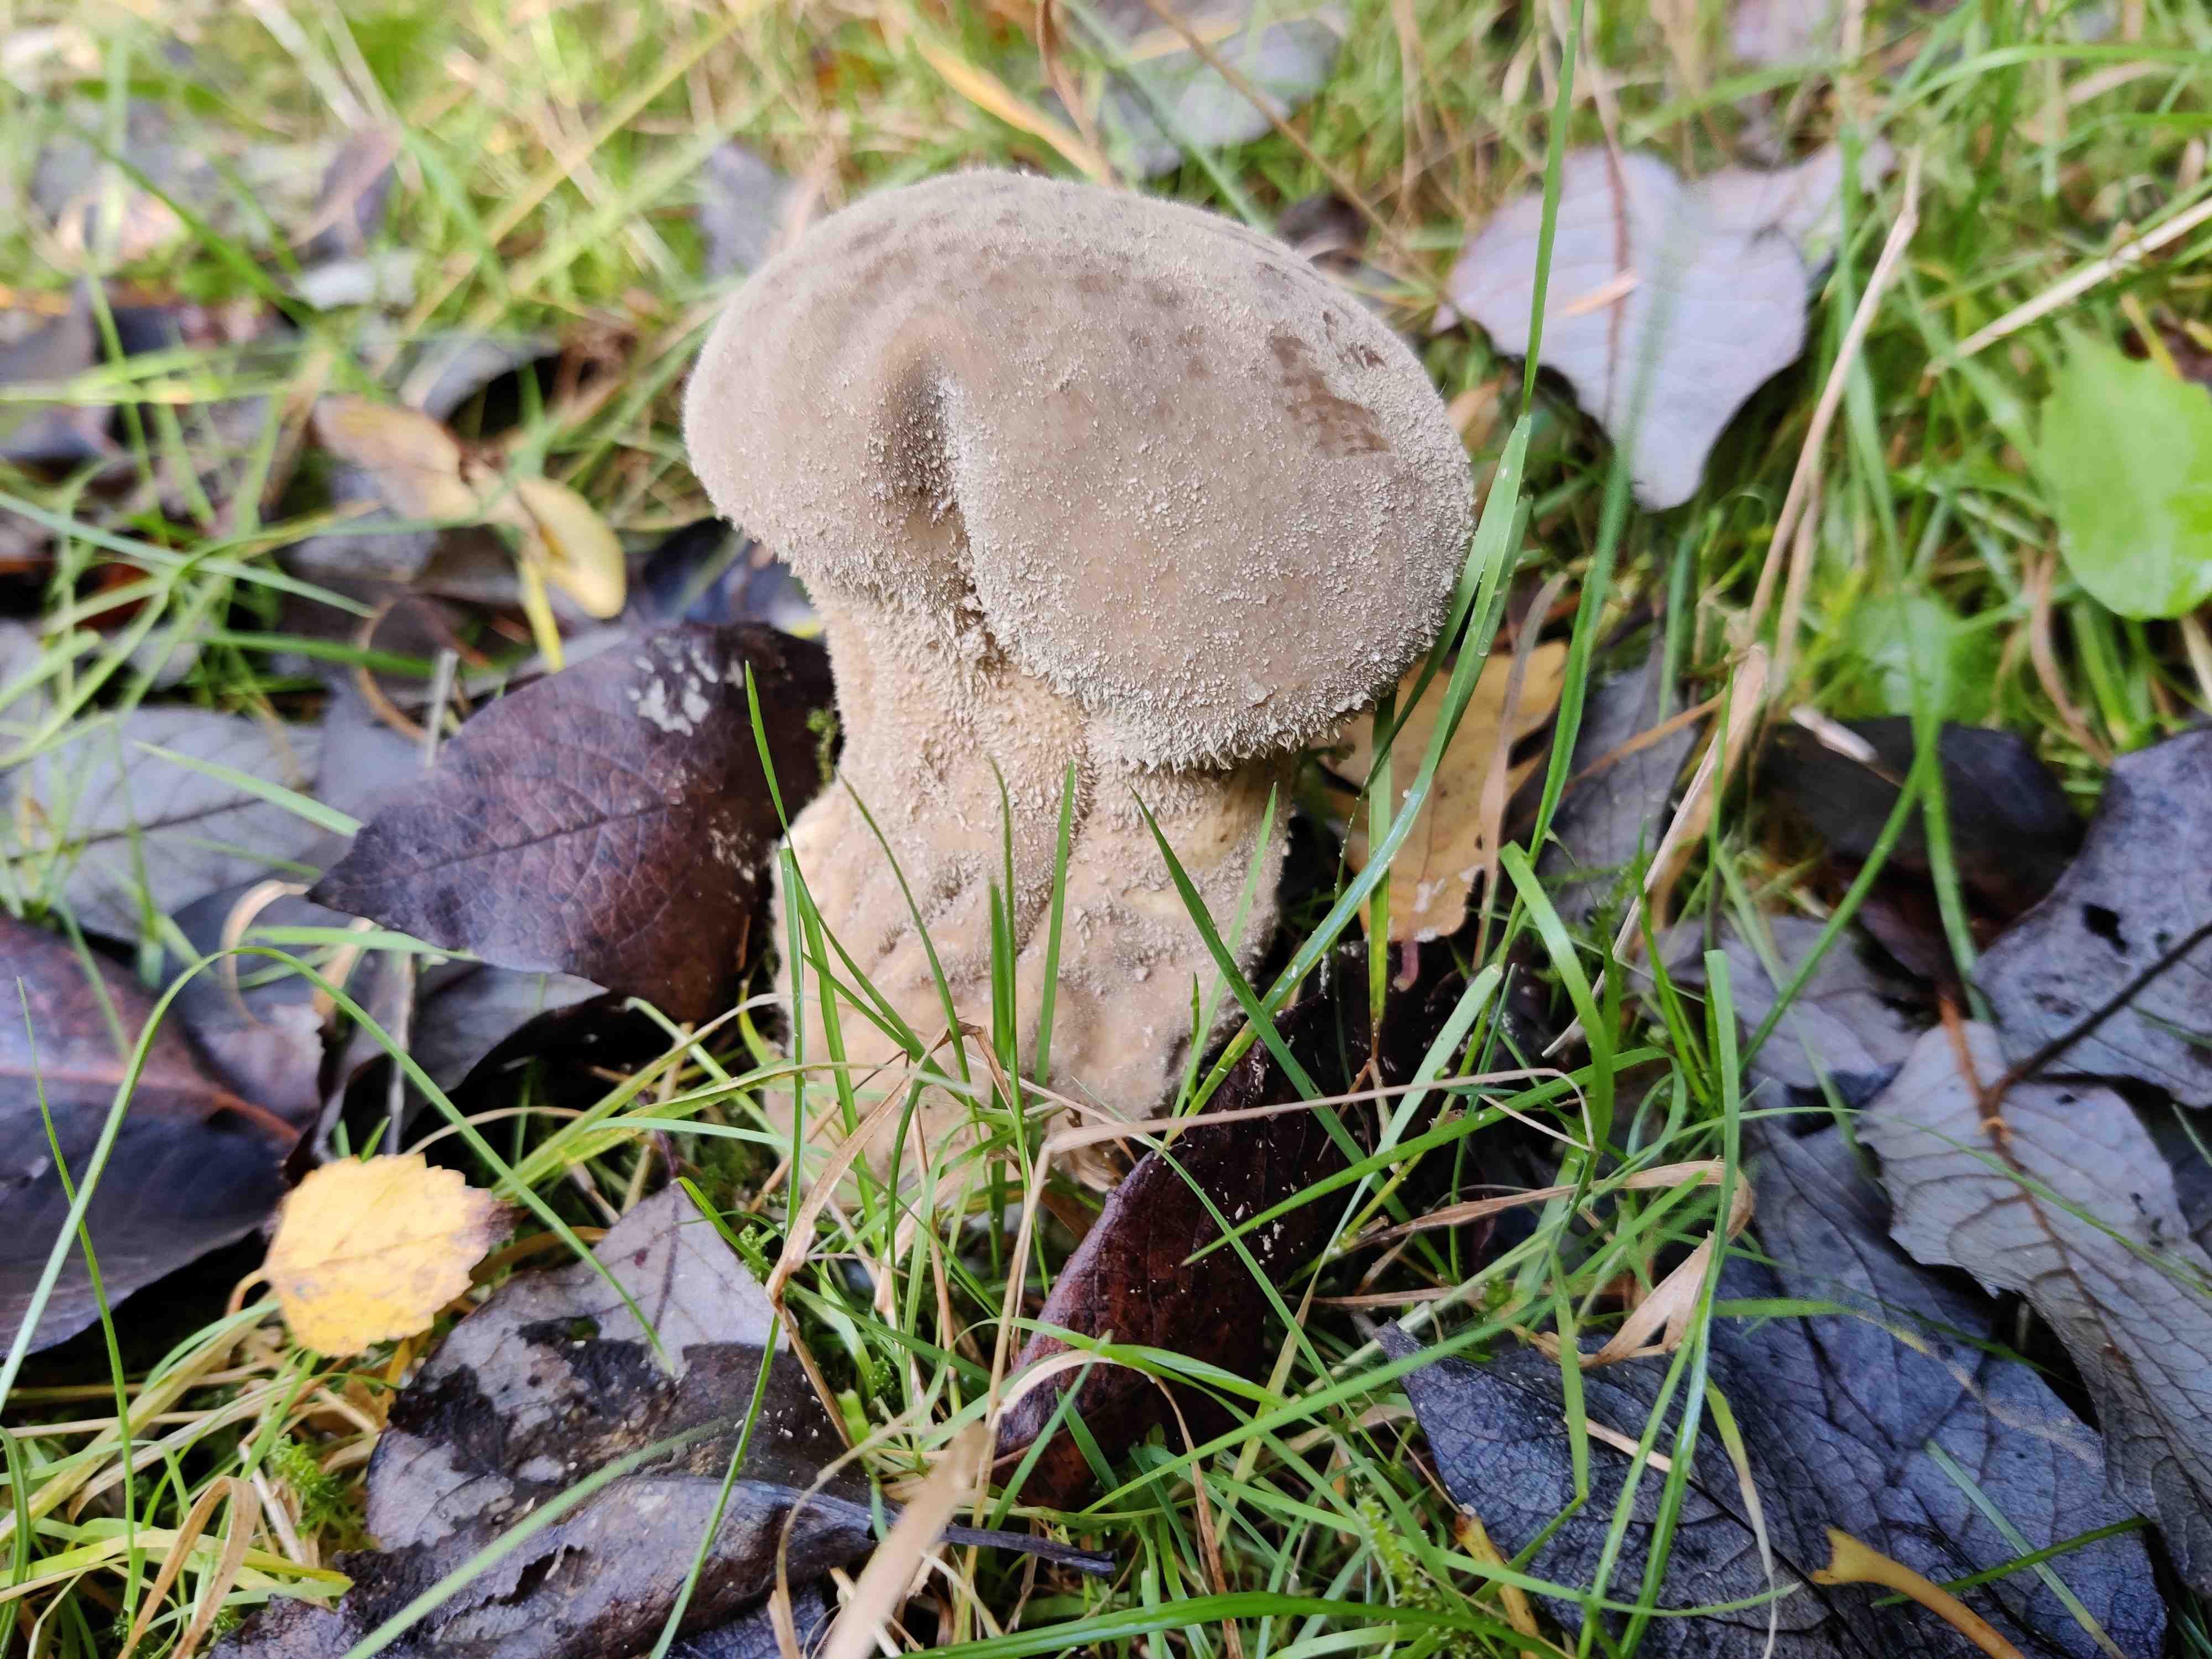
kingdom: Fungi
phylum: Basidiomycota
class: Agaricomycetes
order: Agaricales
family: Lycoperdaceae
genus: Lycoperdon
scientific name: Lycoperdon excipuliforme
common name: højstokket støvbold
